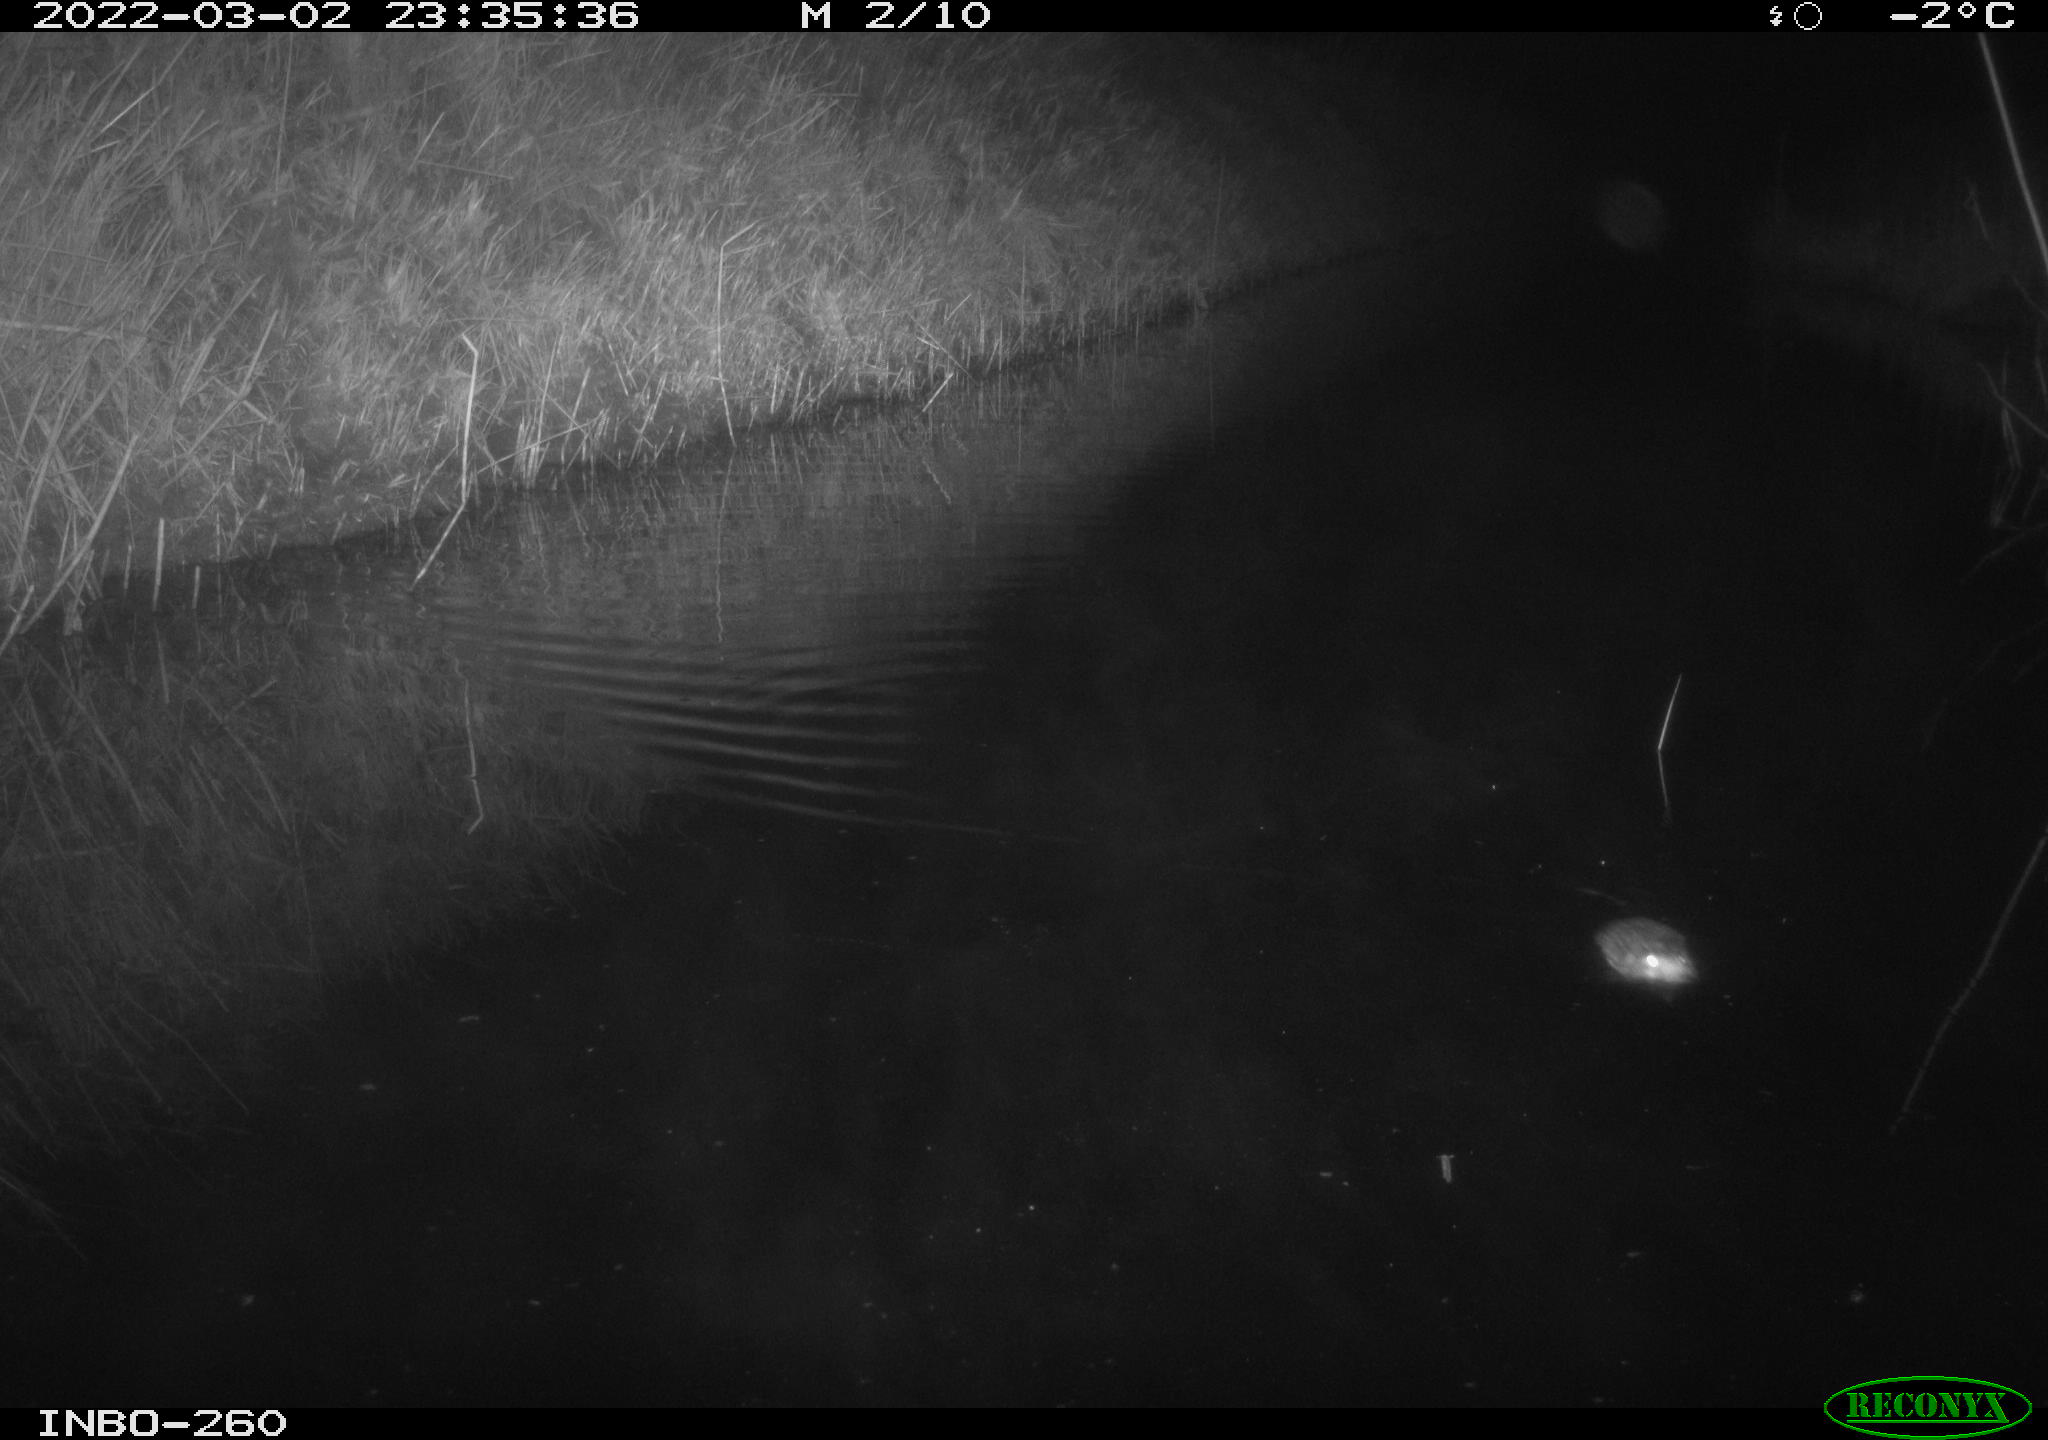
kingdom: Animalia
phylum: Chordata
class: Mammalia
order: Rodentia
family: Cricetidae
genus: Ondatra
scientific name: Ondatra zibethicus
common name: Muskrat
